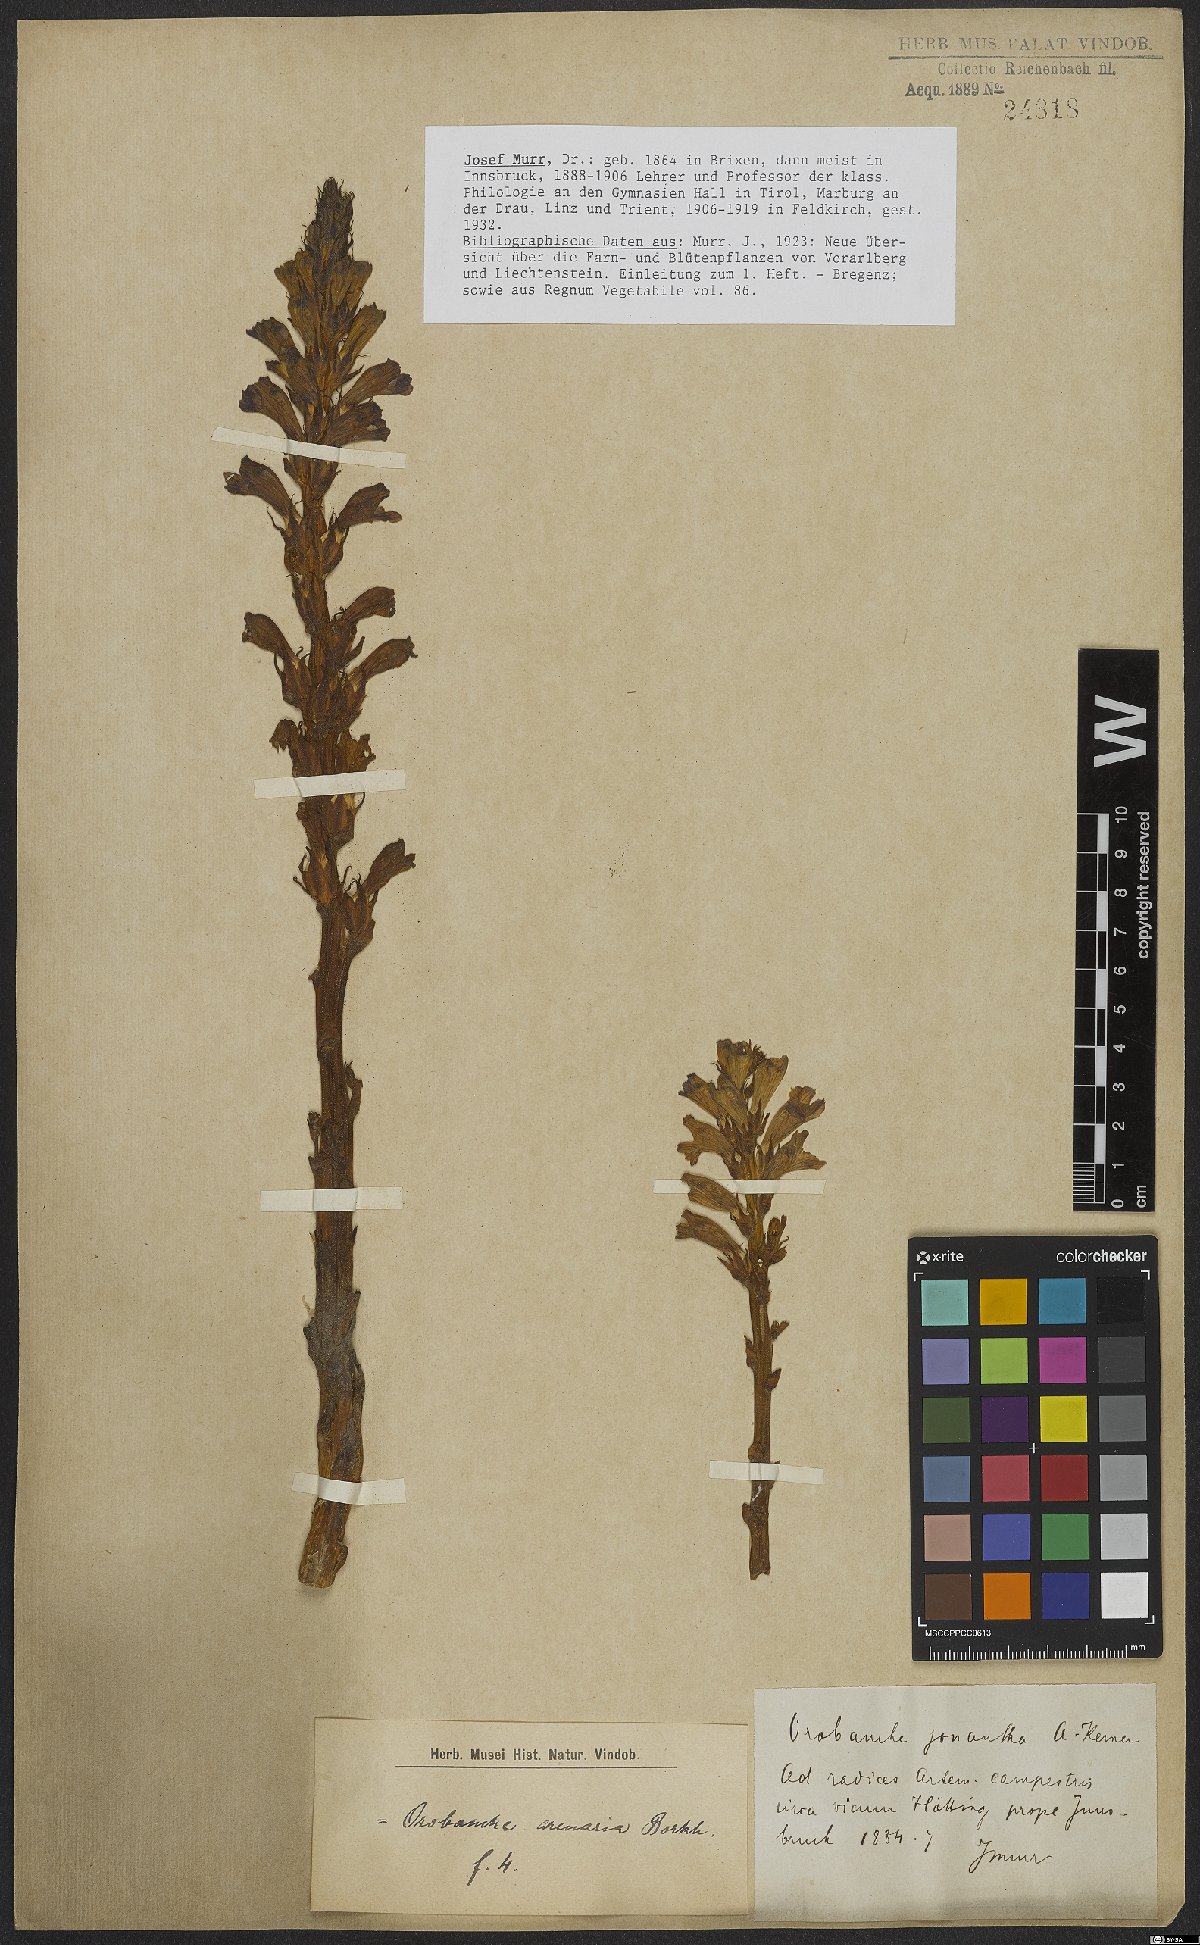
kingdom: Plantae
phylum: Tracheophyta
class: Magnoliopsida
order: Lamiales
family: Orobanchaceae
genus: Phelipanche
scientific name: Phelipanche arenaria
